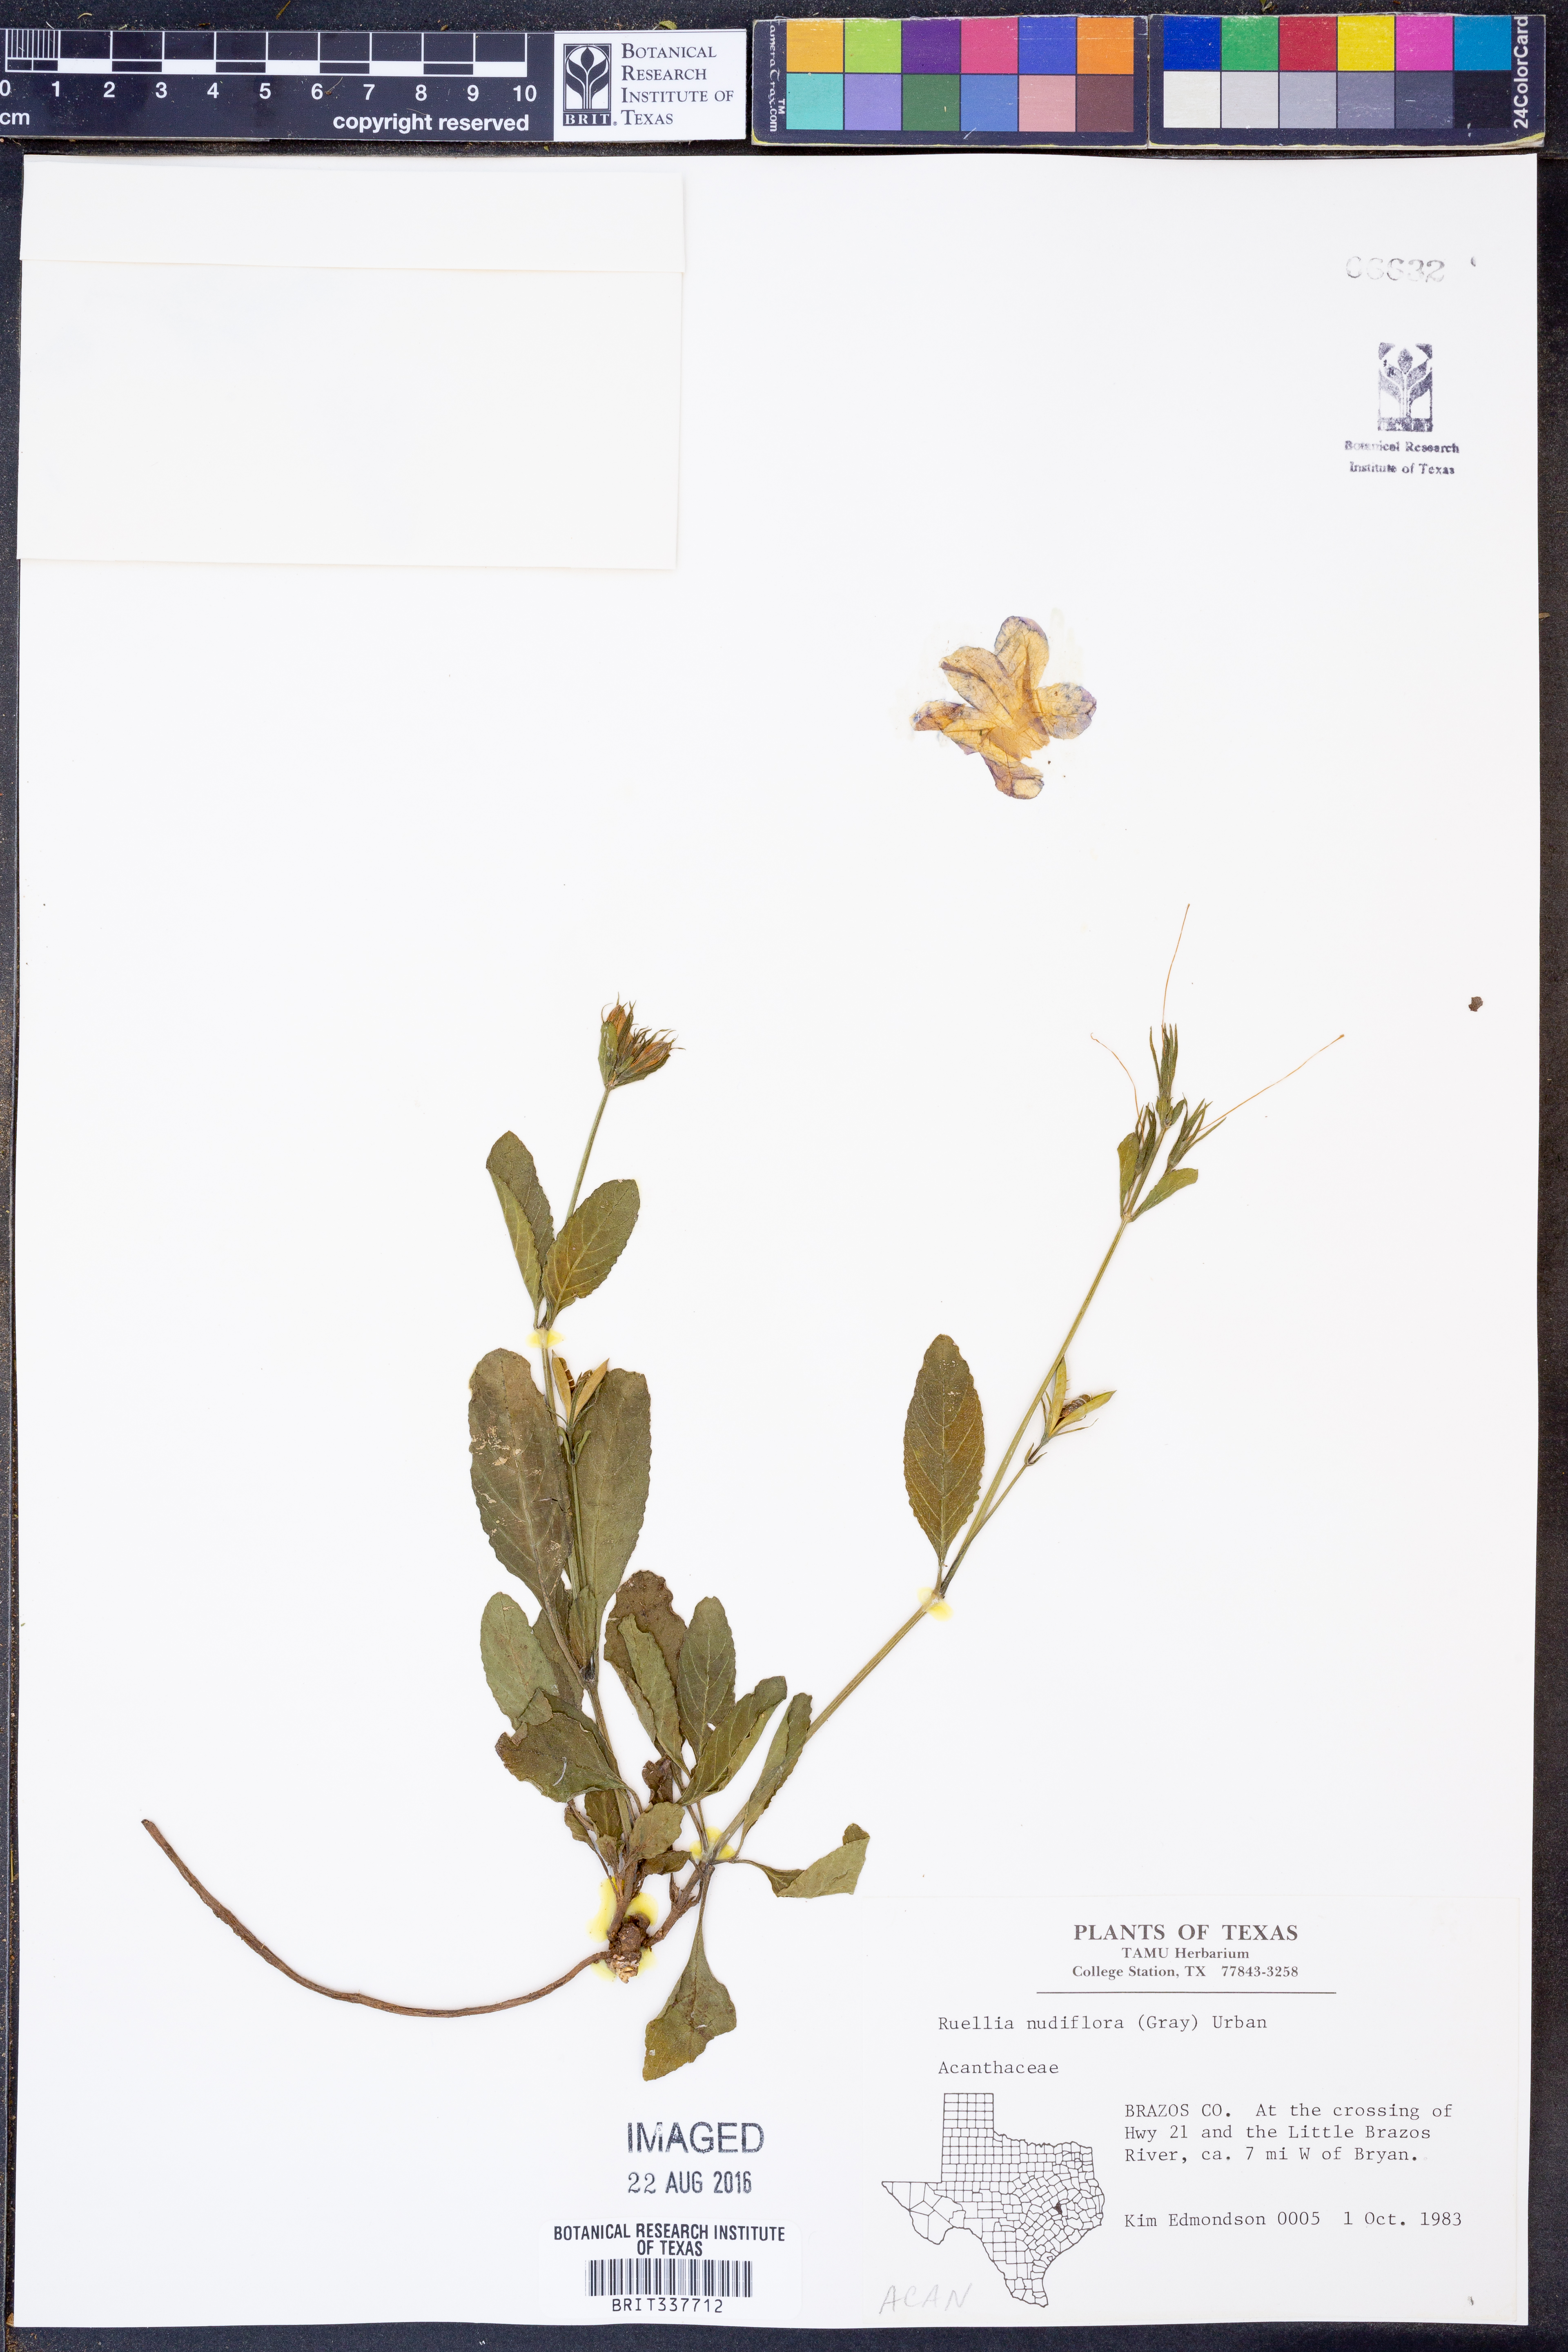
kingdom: Plantae
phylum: Tracheophyta
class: Magnoliopsida
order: Lamiales
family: Acanthaceae
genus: Ruellia
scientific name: Ruellia ciliatiflora
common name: Hairyflower wild petunia
